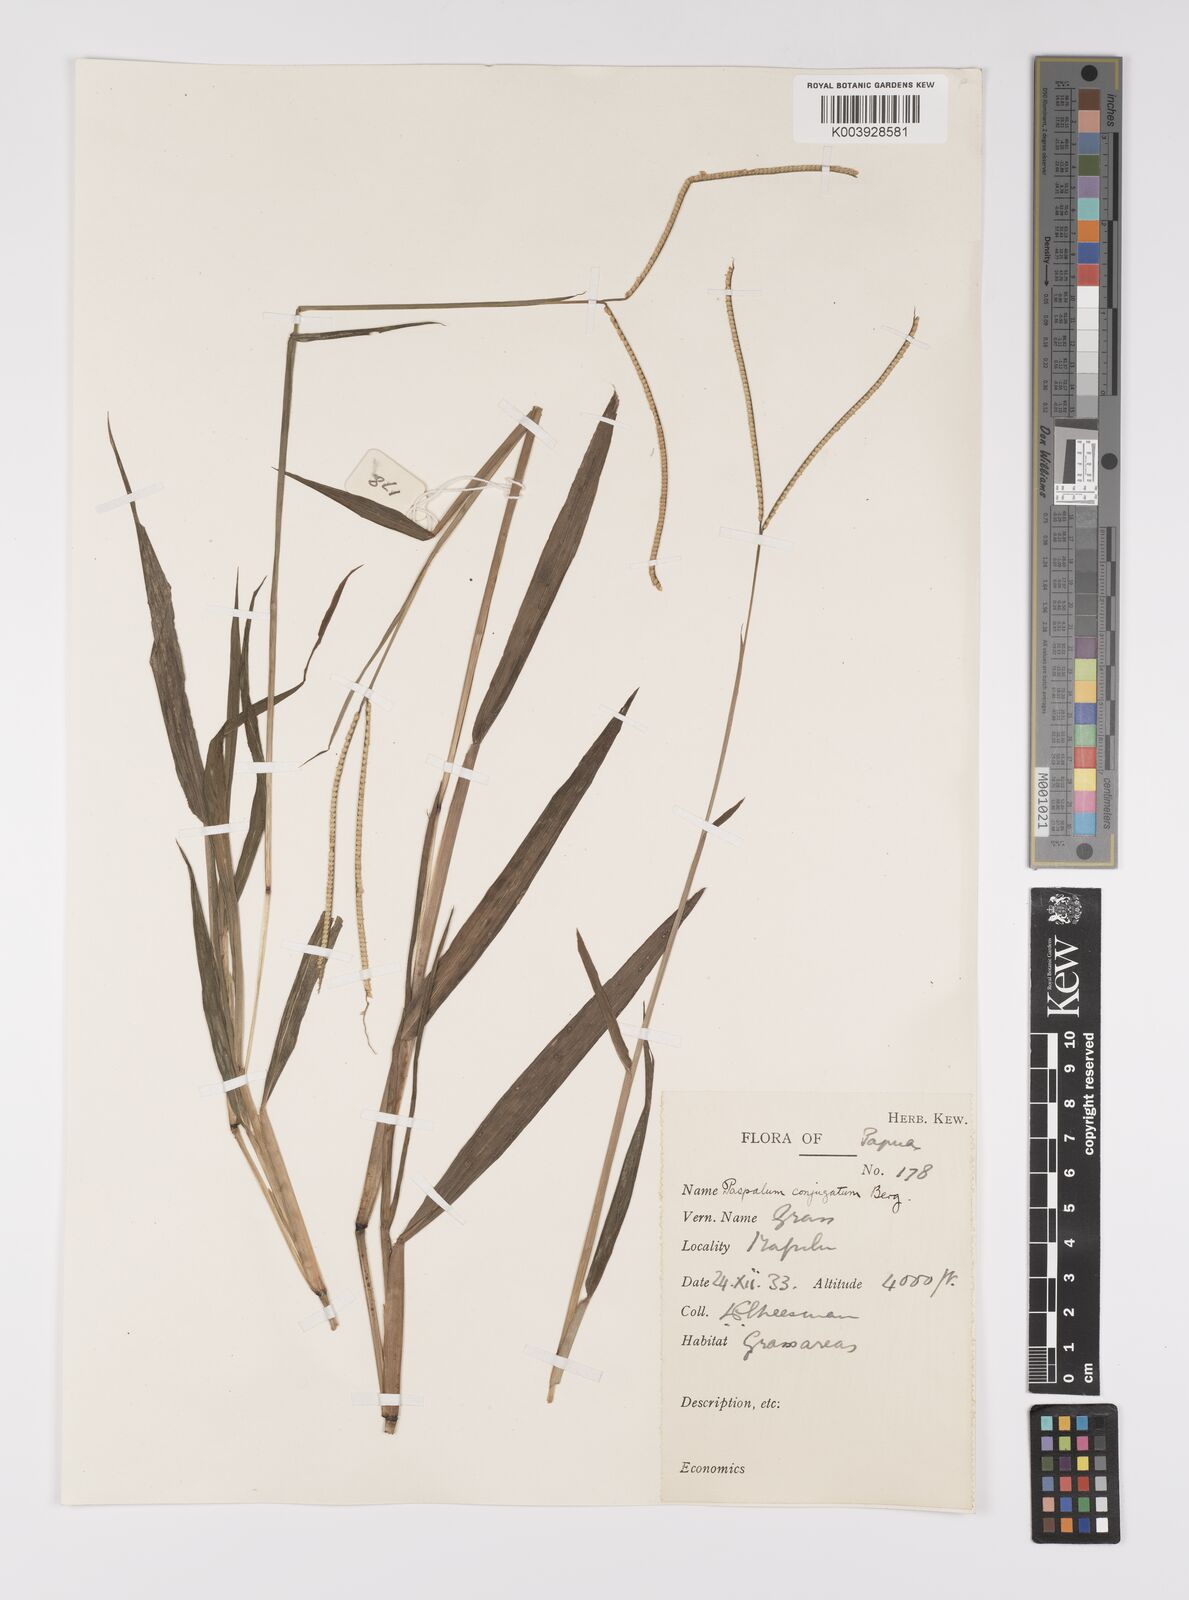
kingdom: Plantae
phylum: Tracheophyta
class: Liliopsida
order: Poales
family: Poaceae
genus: Paspalum
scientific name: Paspalum conjugatum
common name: Hilograss
